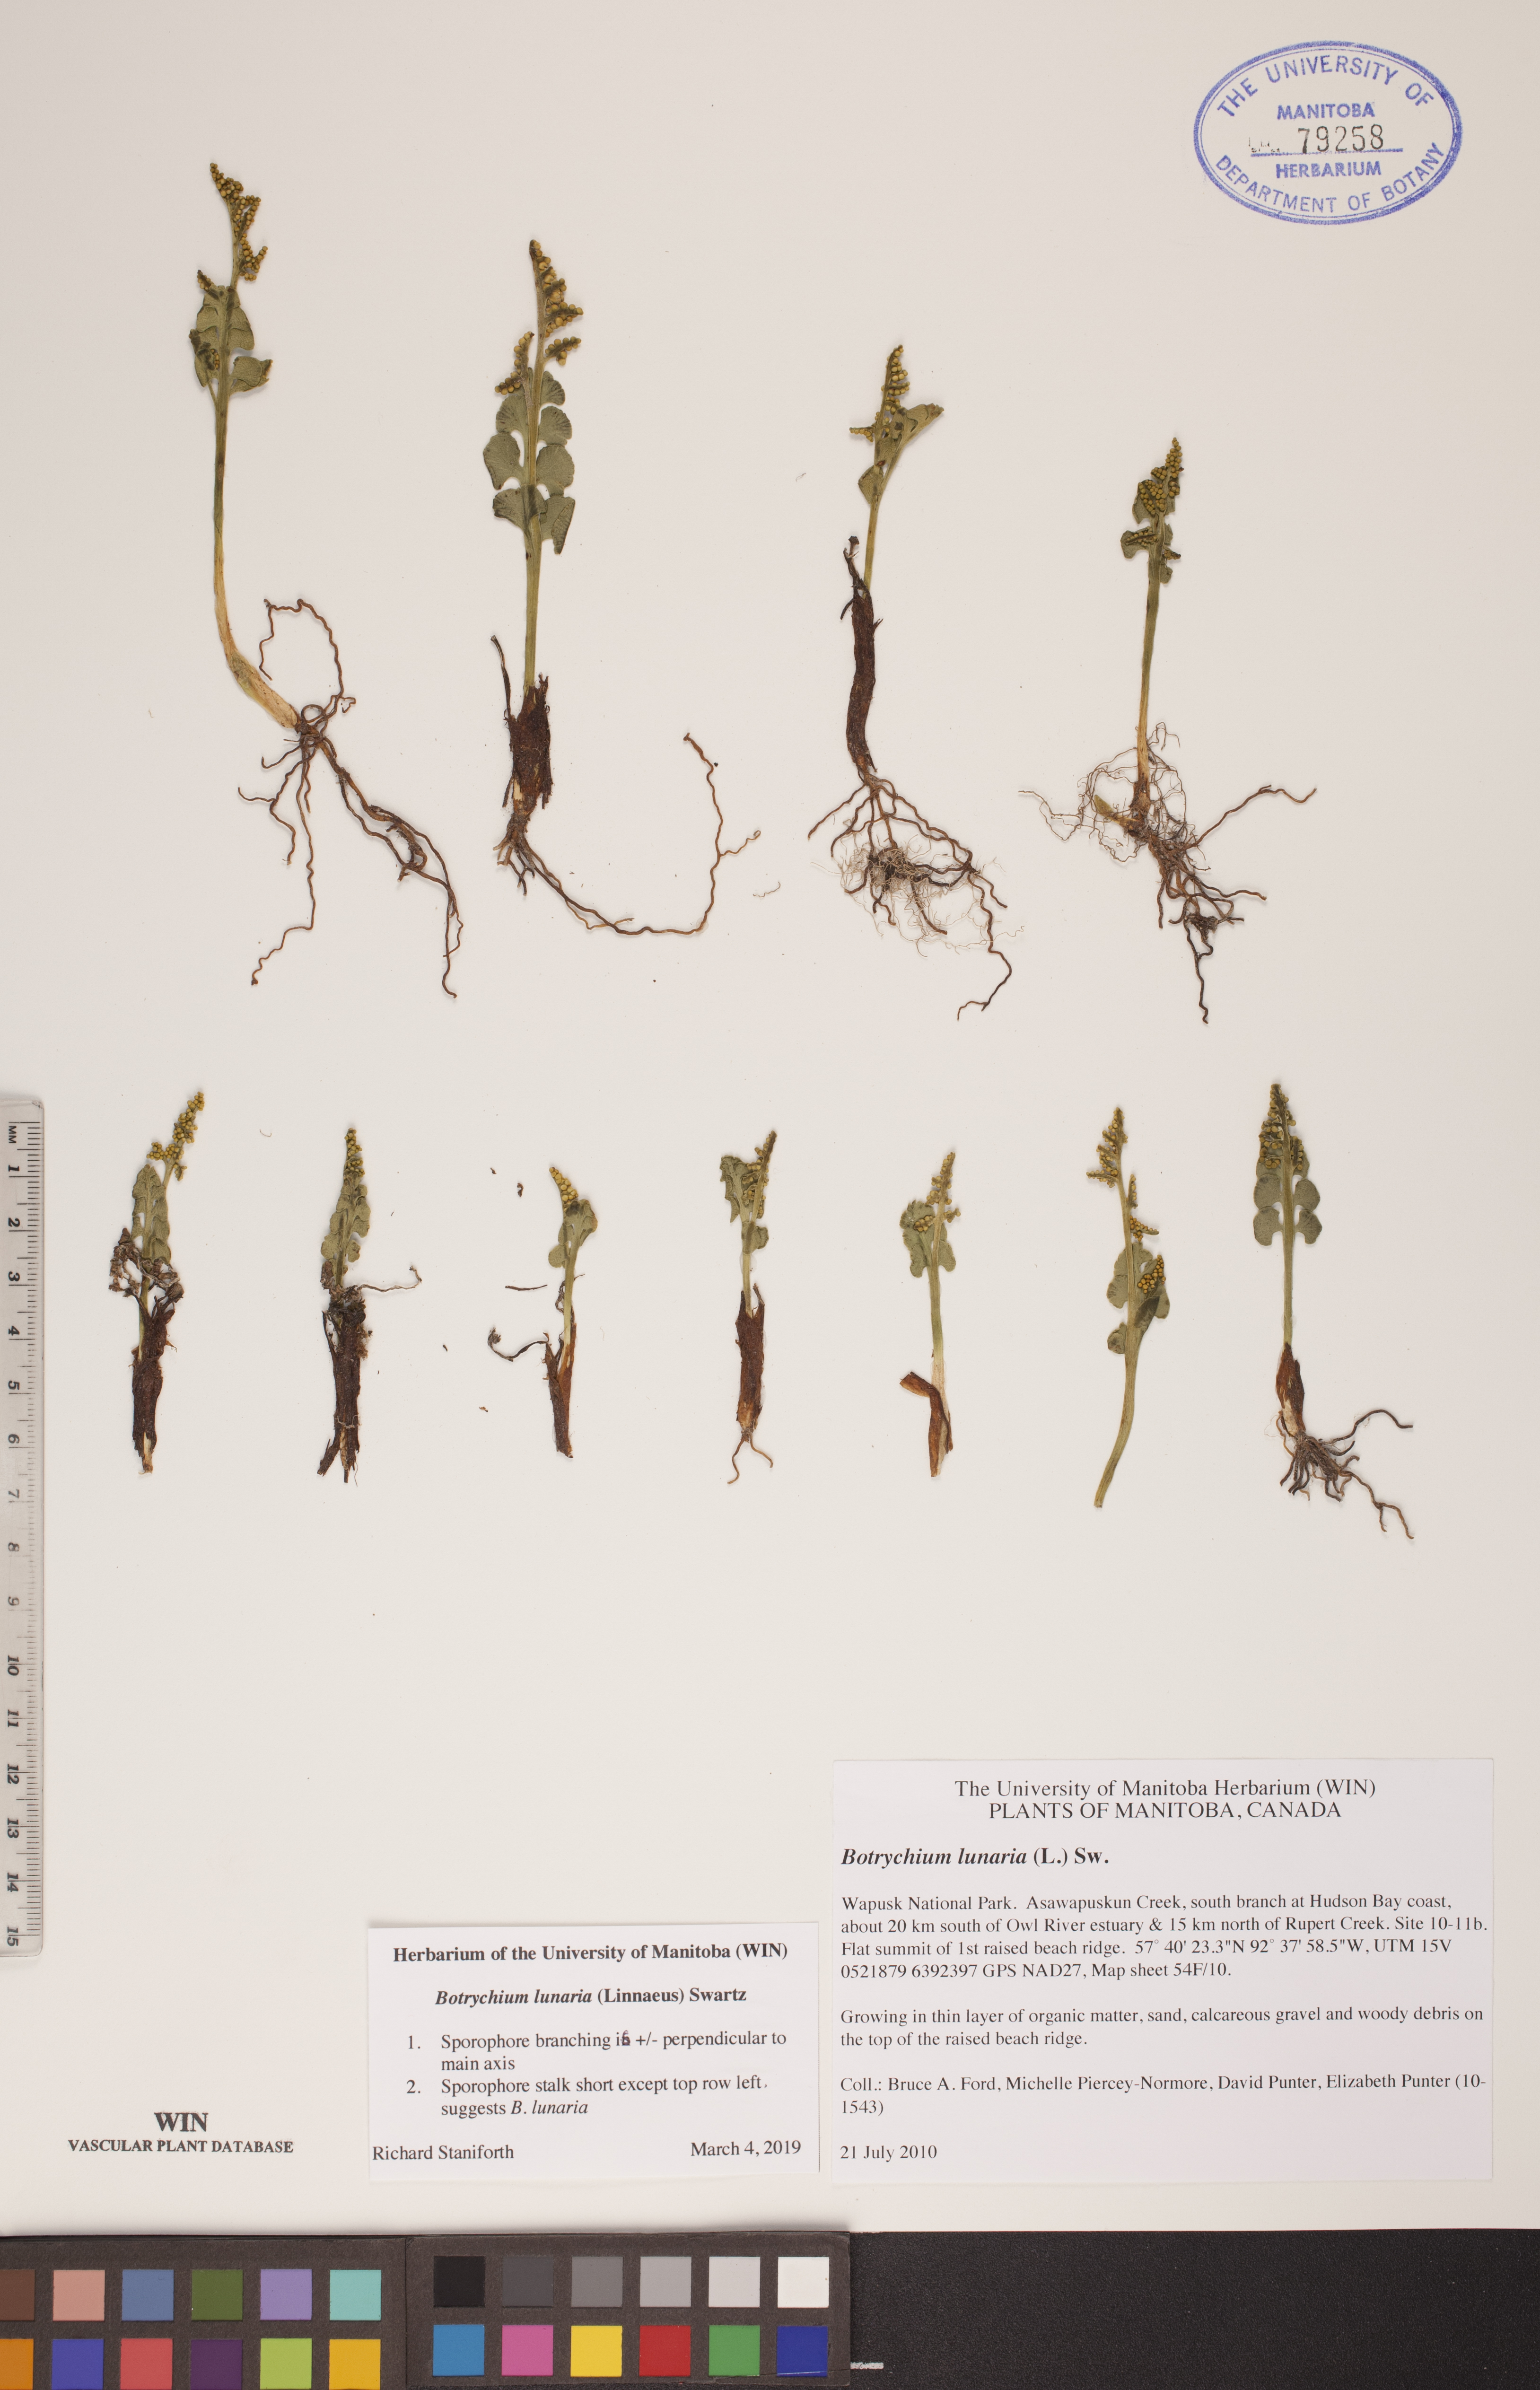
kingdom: Plantae
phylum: Tracheophyta
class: Polypodiopsida
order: Ophioglossales
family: Ophioglossaceae
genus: Botrychium
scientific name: Botrychium lunaria
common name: Moonwort
